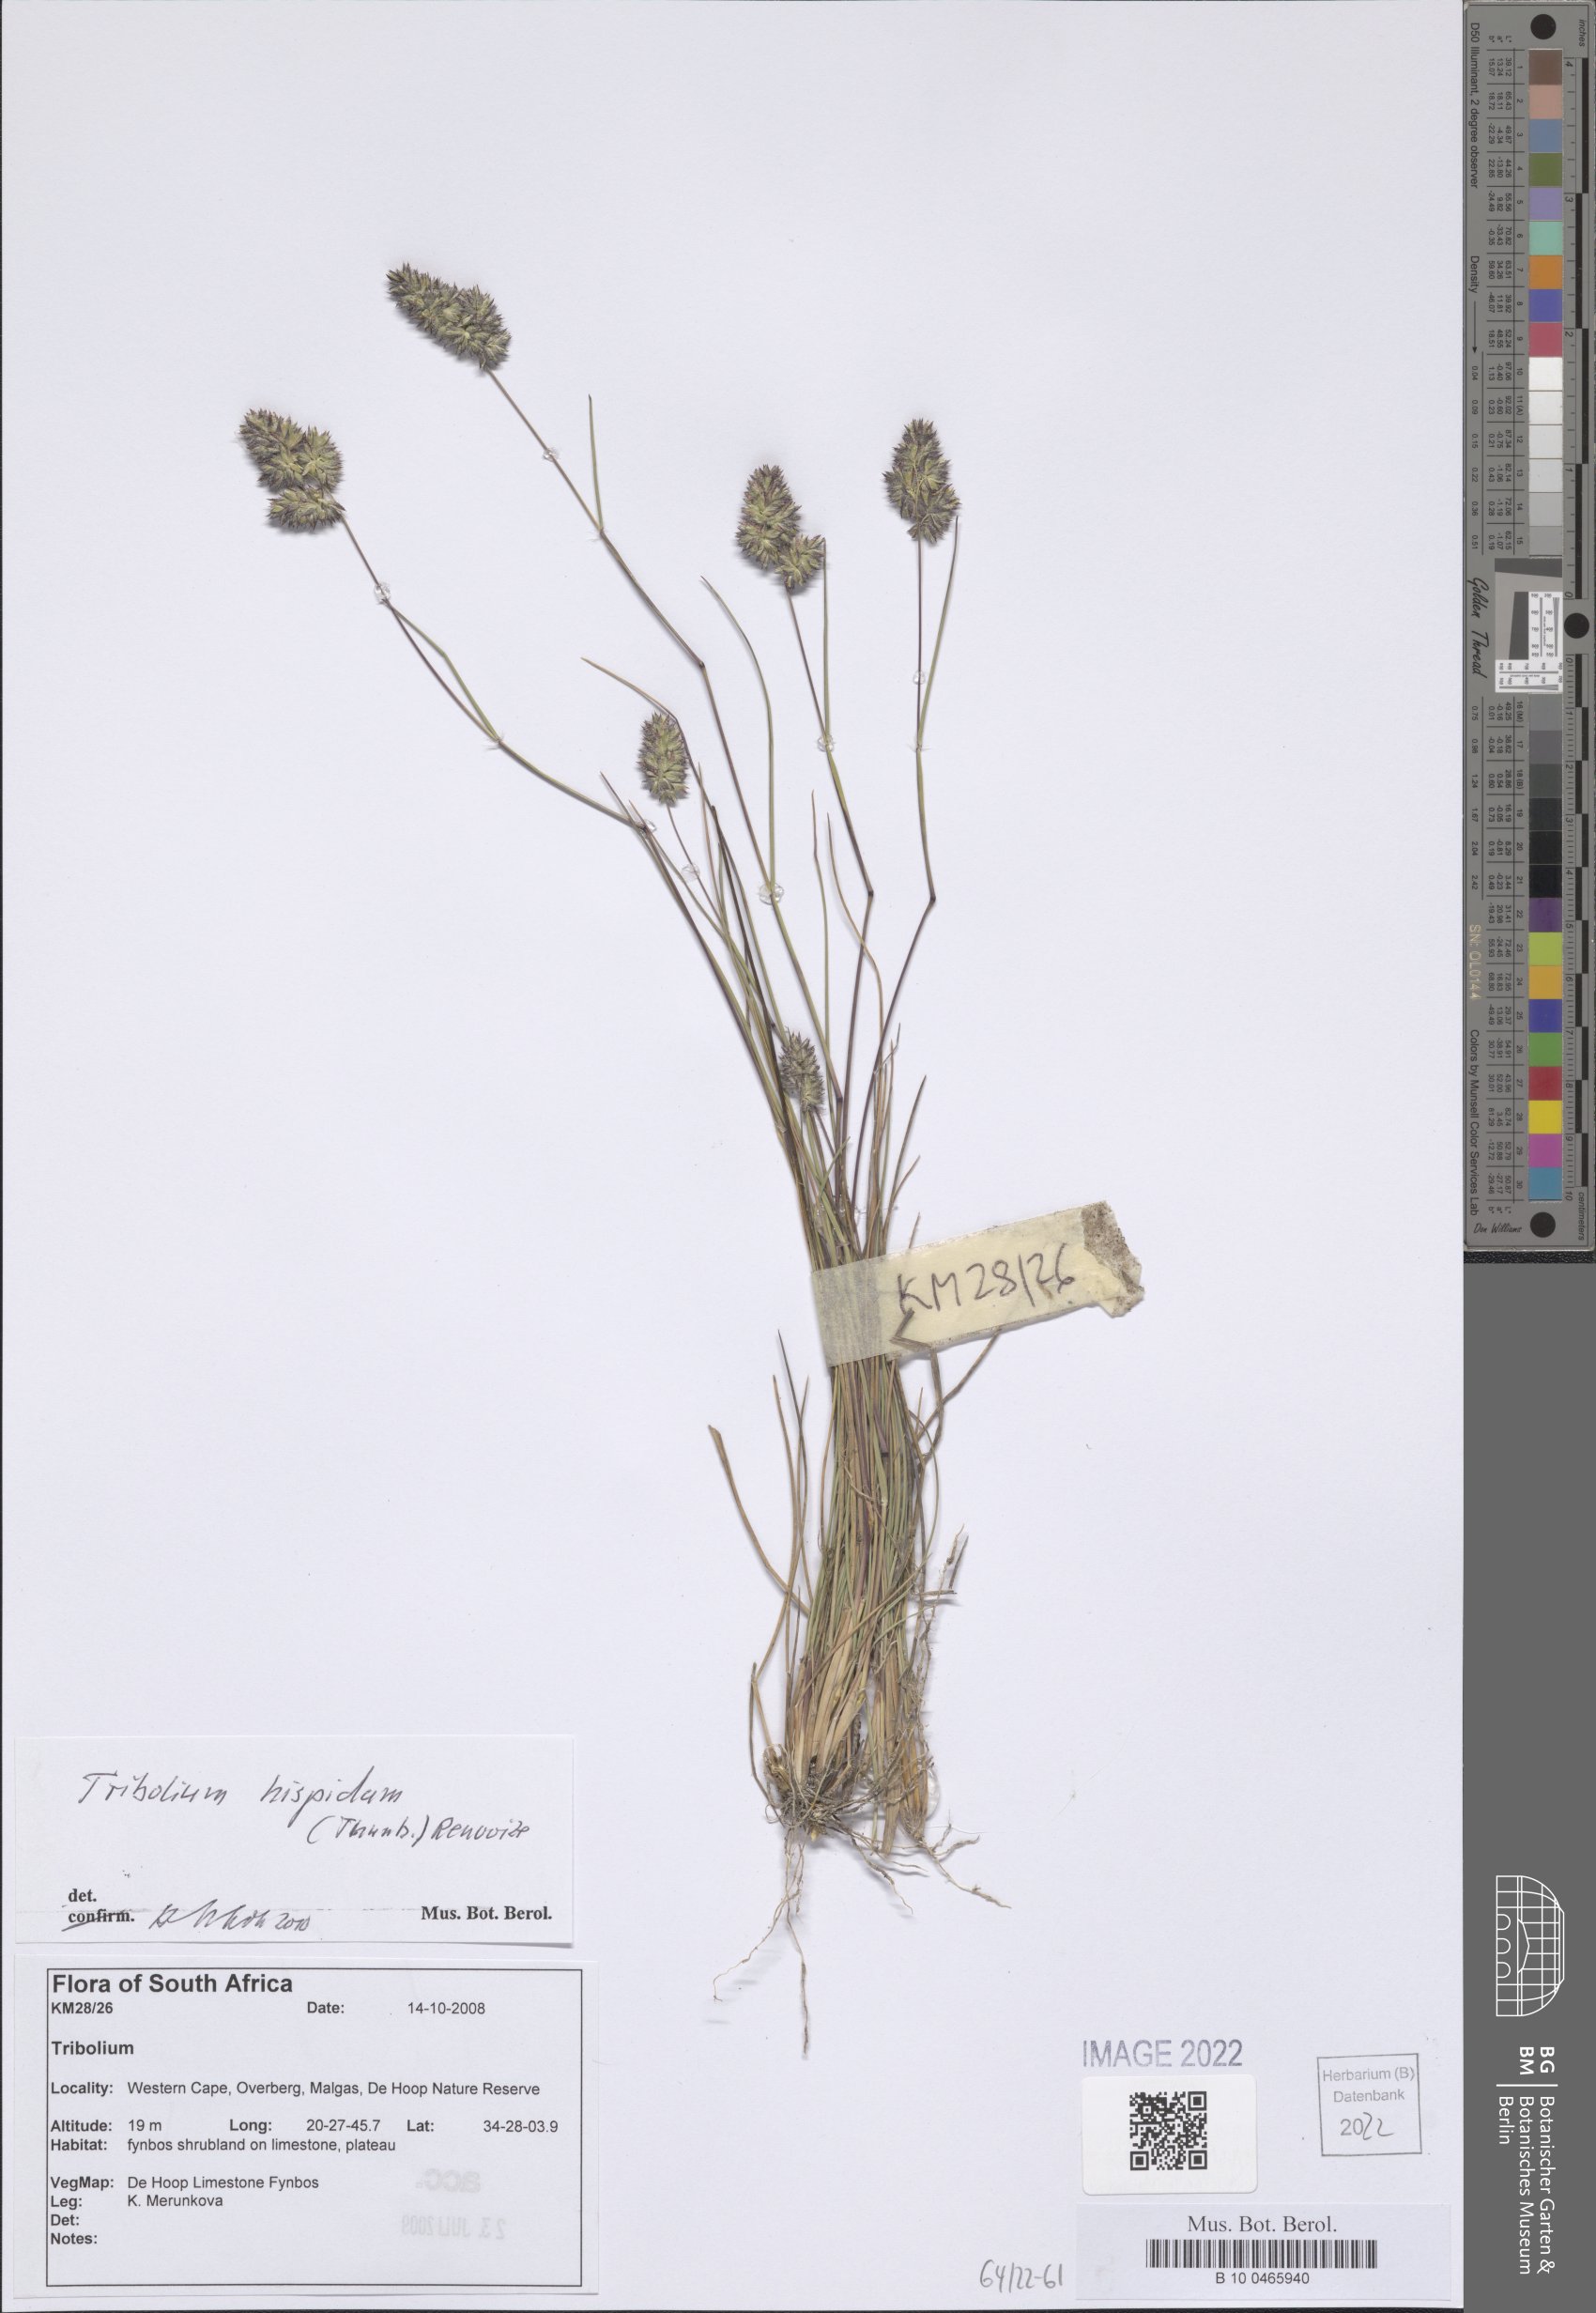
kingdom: Plantae
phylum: Tracheophyta
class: Liliopsida
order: Poales
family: Poaceae
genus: Tribolium
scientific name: Tribolium hispidum
